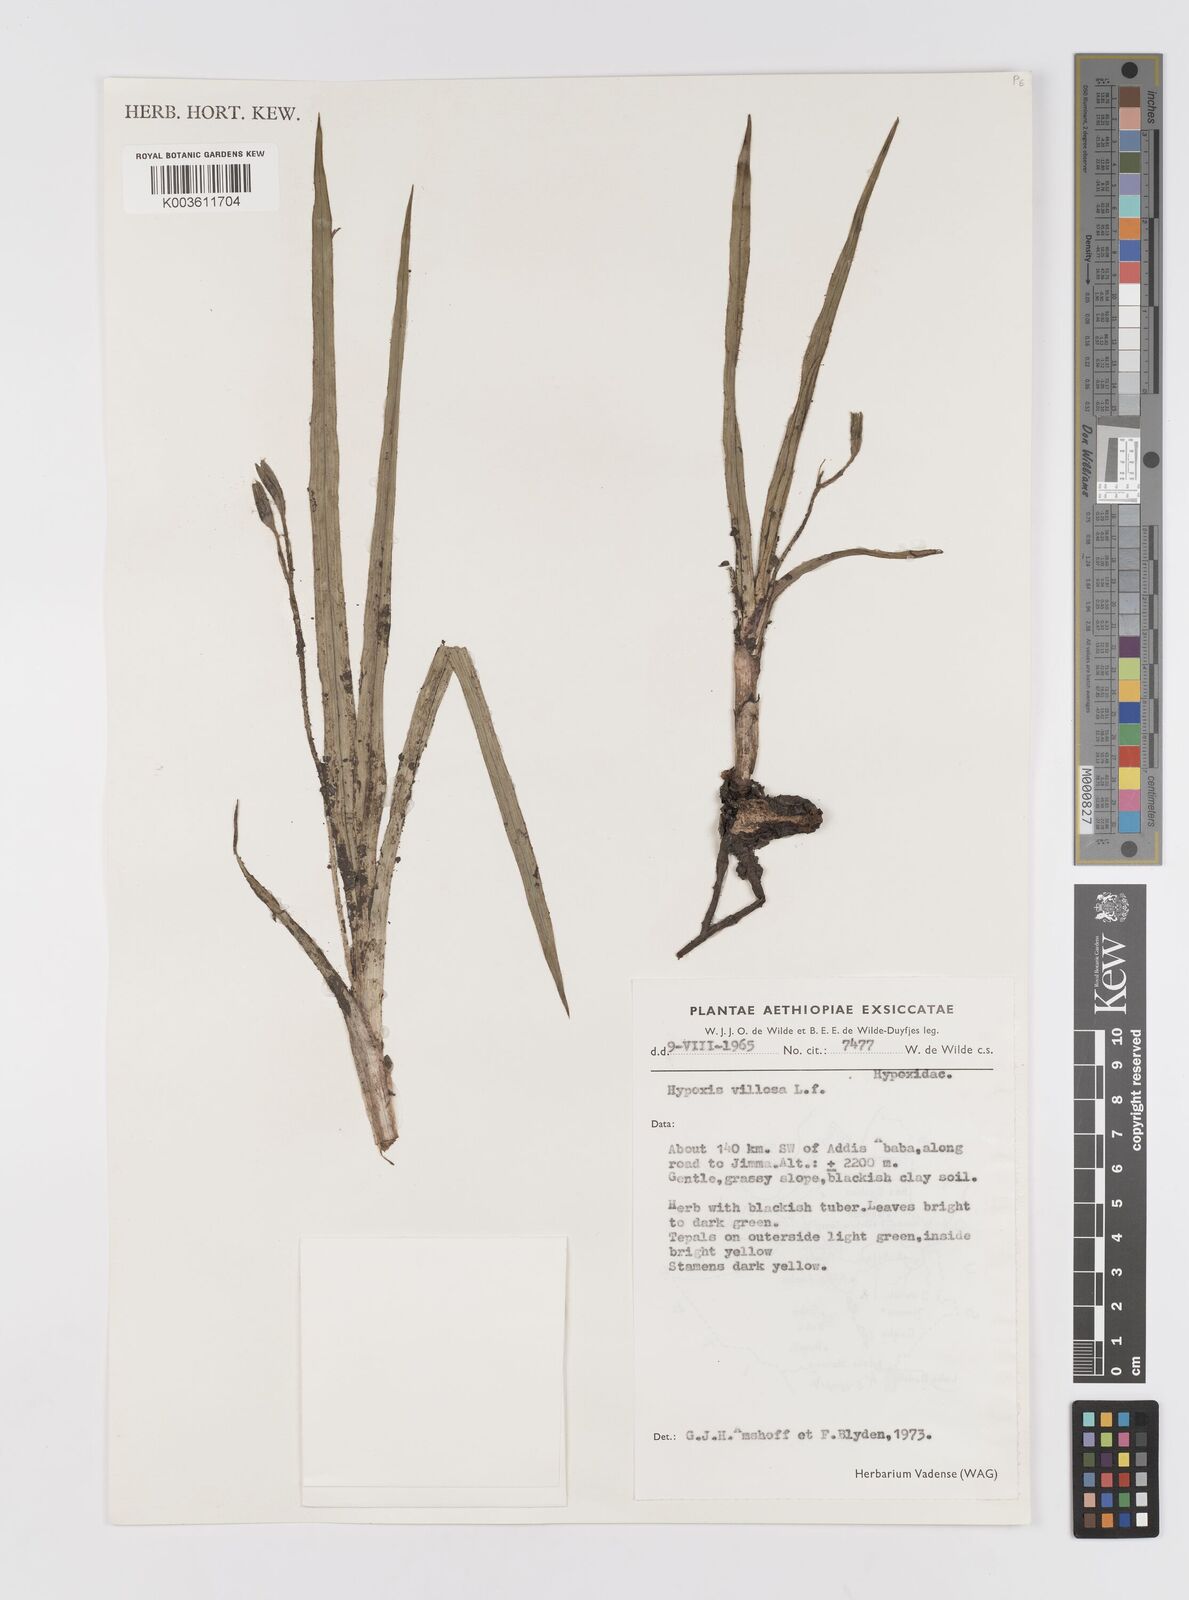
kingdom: Plantae
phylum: Tracheophyta
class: Liliopsida
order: Asparagales
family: Hypoxidaceae
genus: Hypoxis
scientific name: Hypoxis villosa
